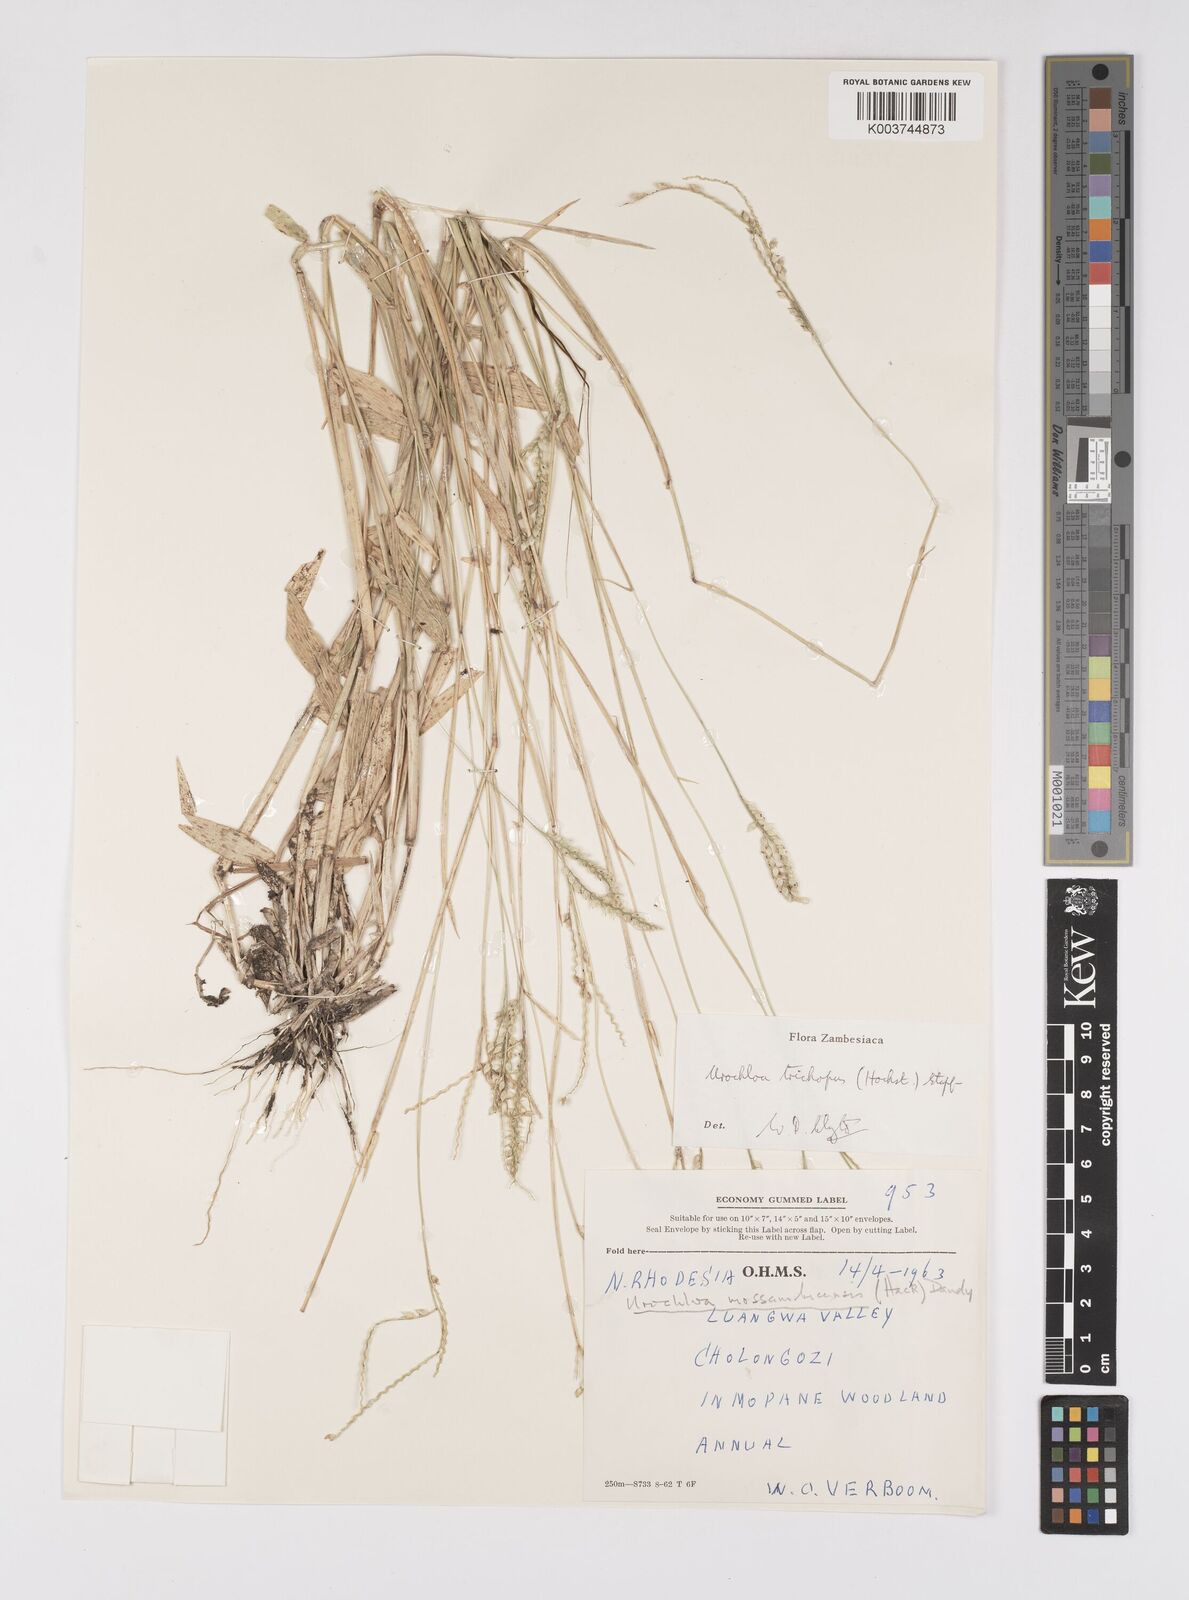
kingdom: Plantae
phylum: Tracheophyta
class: Liliopsida
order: Poales
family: Poaceae
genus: Urochloa
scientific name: Urochloa trichopus
